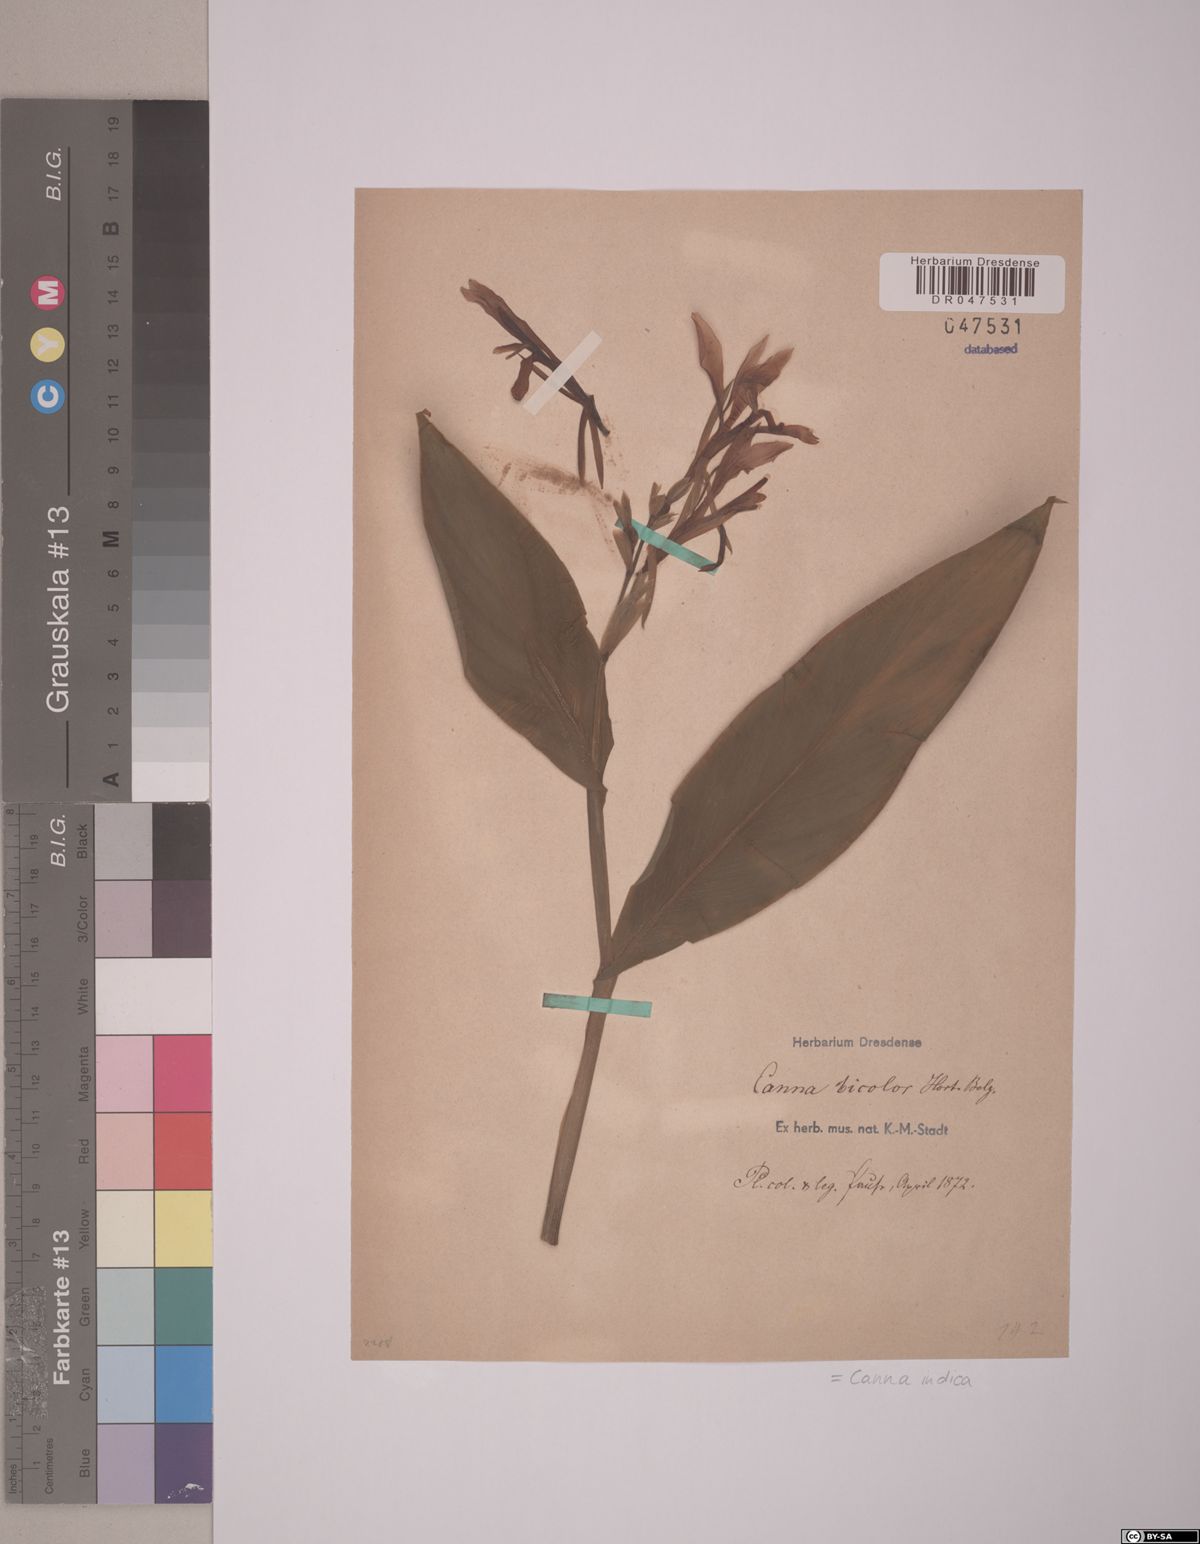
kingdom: Plantae
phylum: Tracheophyta
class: Liliopsida
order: Zingiberales
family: Cannaceae
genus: Canna
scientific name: Canna indica
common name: Indian shot
